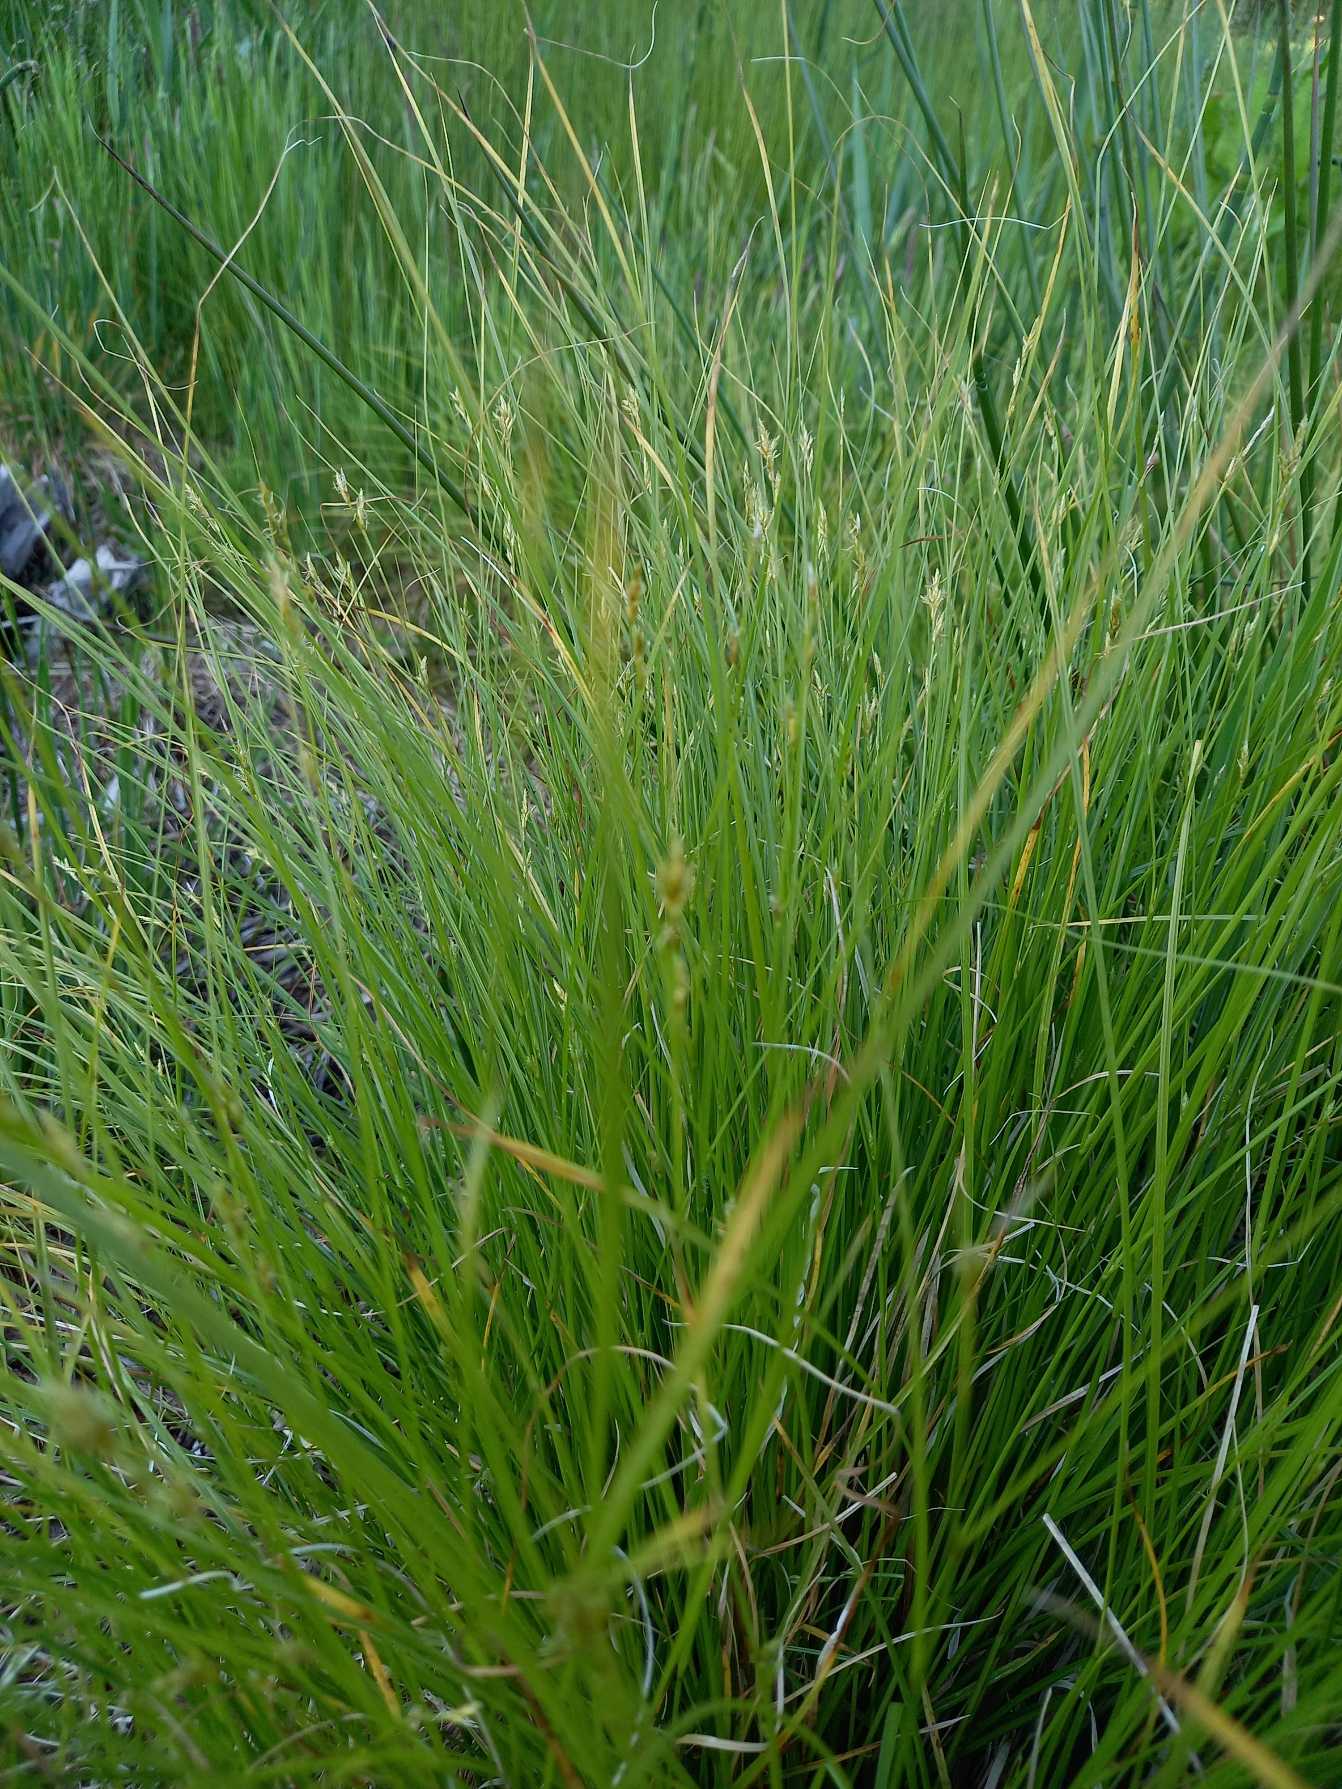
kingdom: Plantae
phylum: Tracheophyta
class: Liliopsida
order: Poales
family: Cyperaceae
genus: Carex
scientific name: Carex remota
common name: Akselblomstret star
